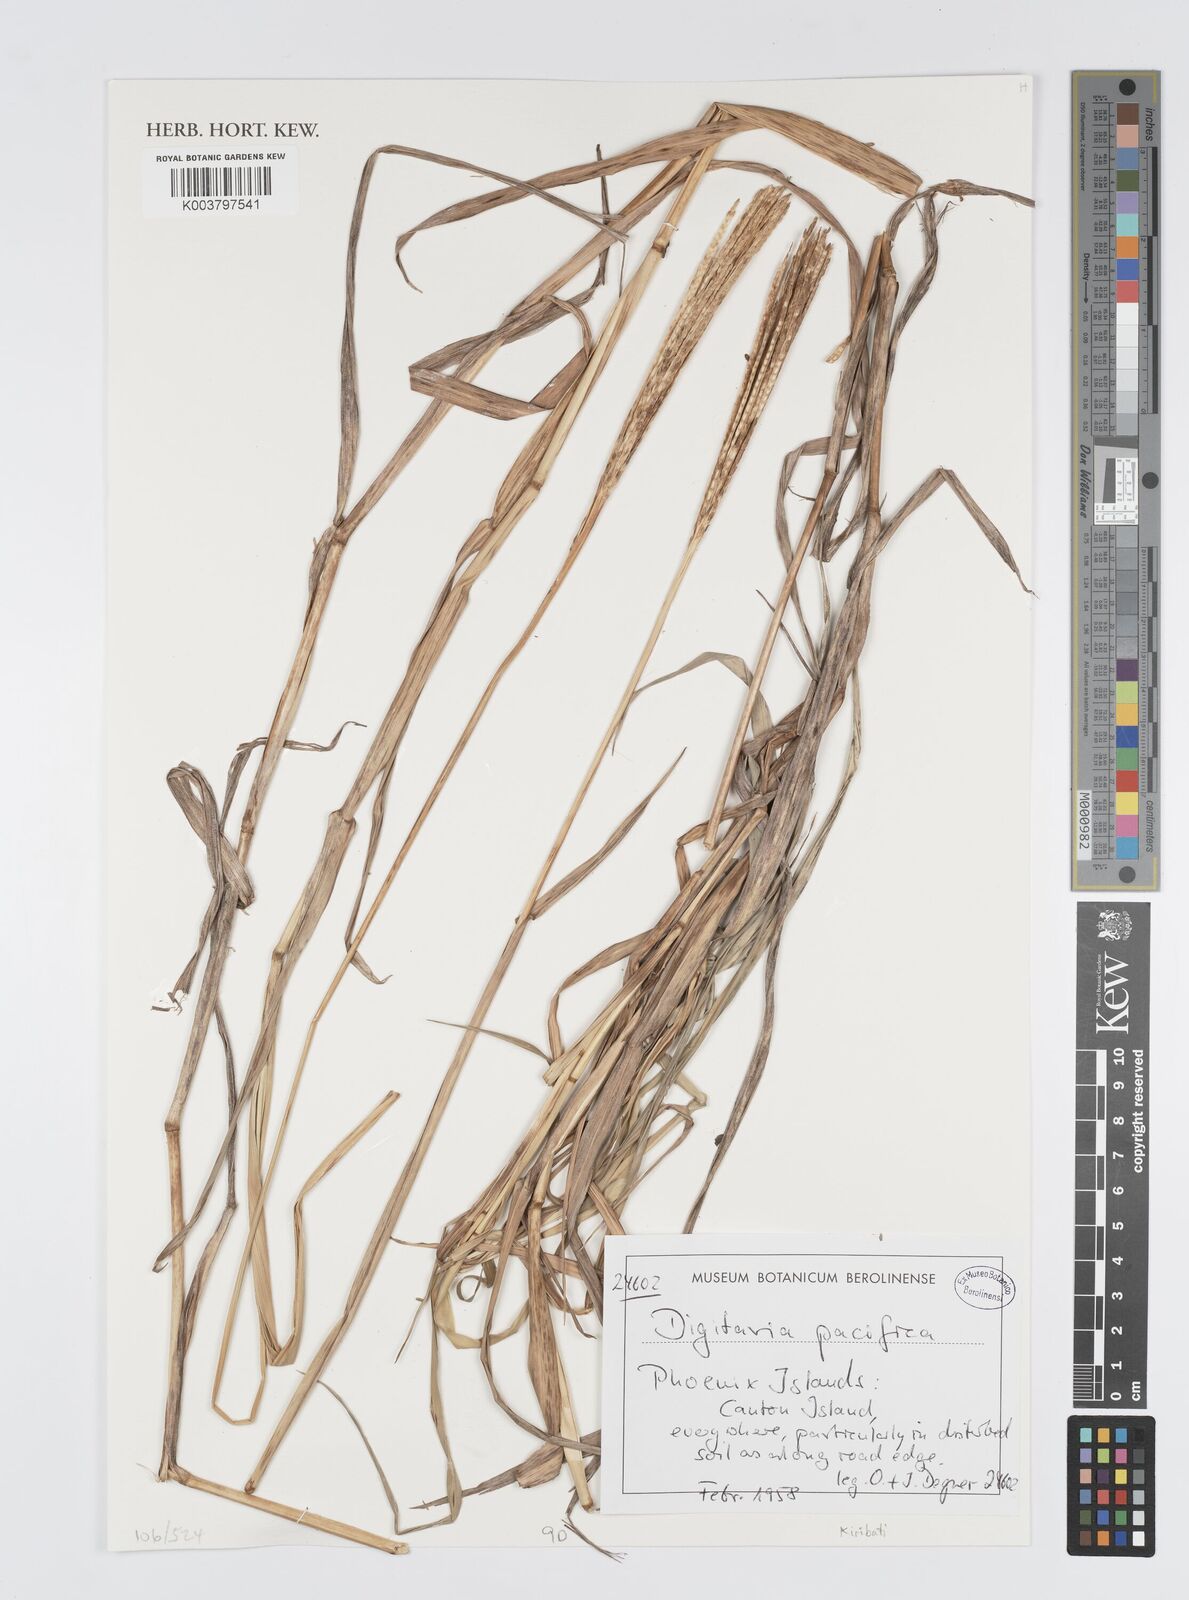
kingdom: Plantae
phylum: Tracheophyta
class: Liliopsida
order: Poales
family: Poaceae
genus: Digitaria
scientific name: Digitaria stenotaphrodes
